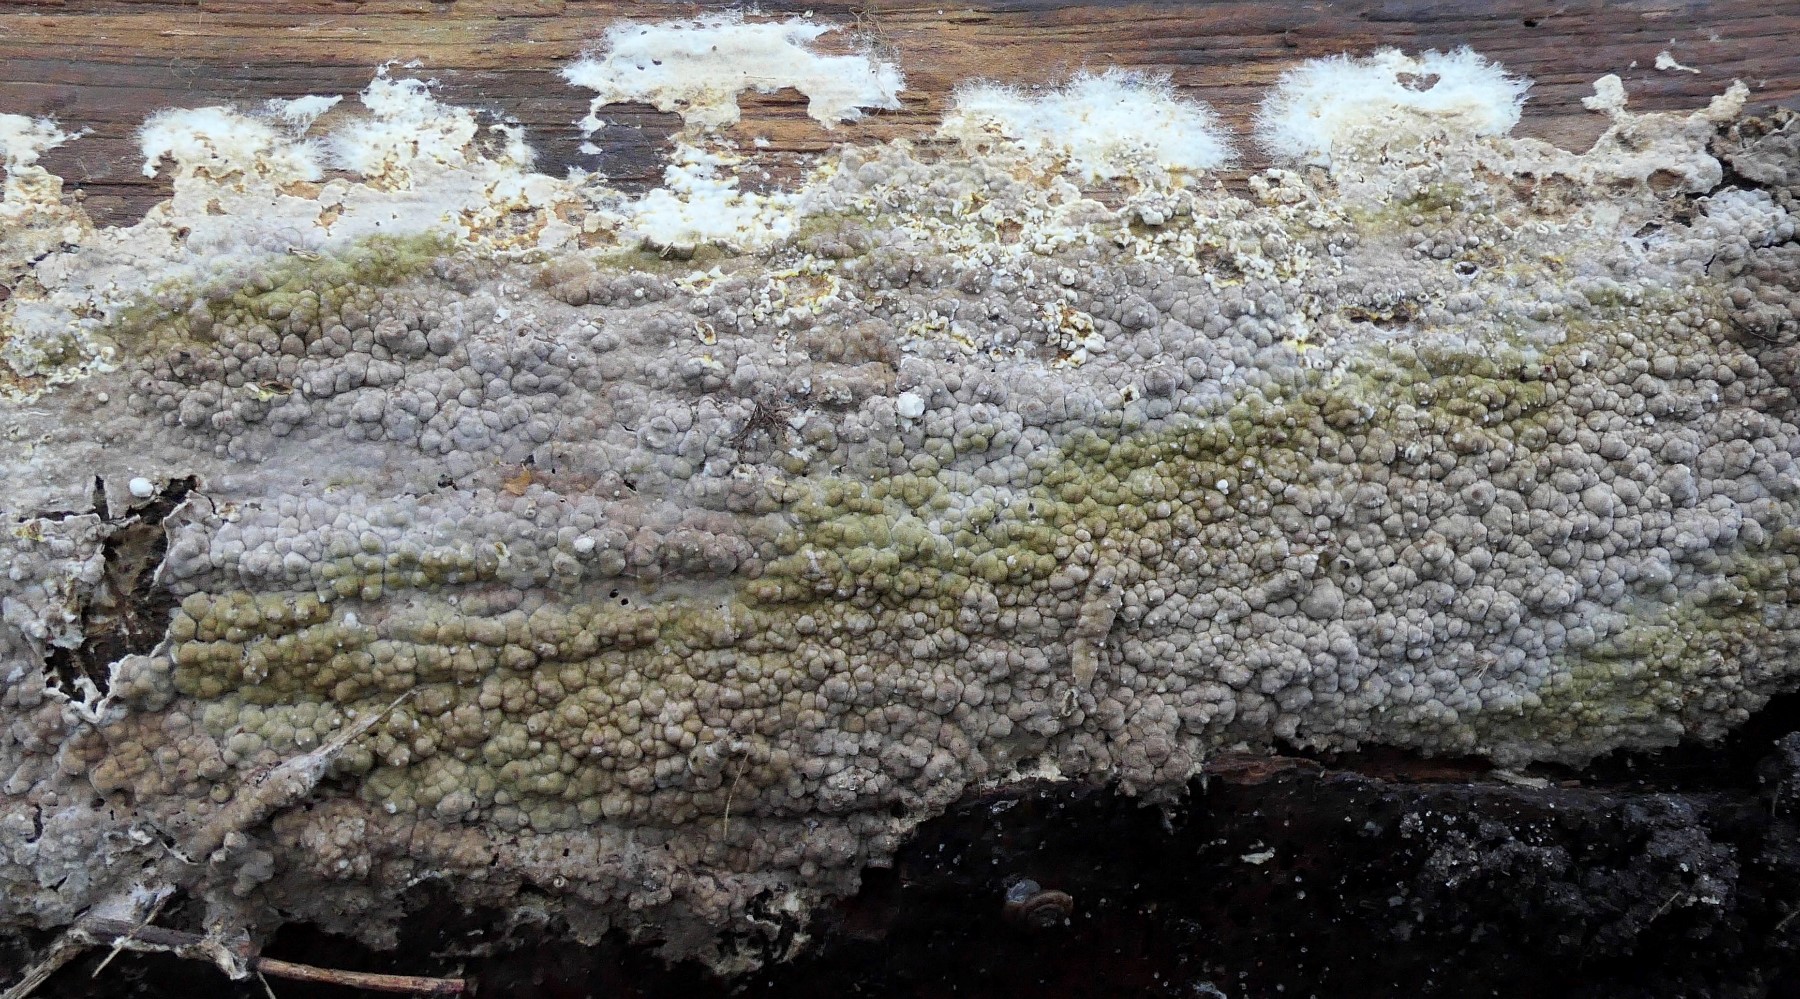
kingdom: Fungi
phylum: Basidiomycota
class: Agaricomycetes
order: Boletales
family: Coniophoraceae
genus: Coniophora
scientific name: Coniophora puteana
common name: gul tømmersvamp
